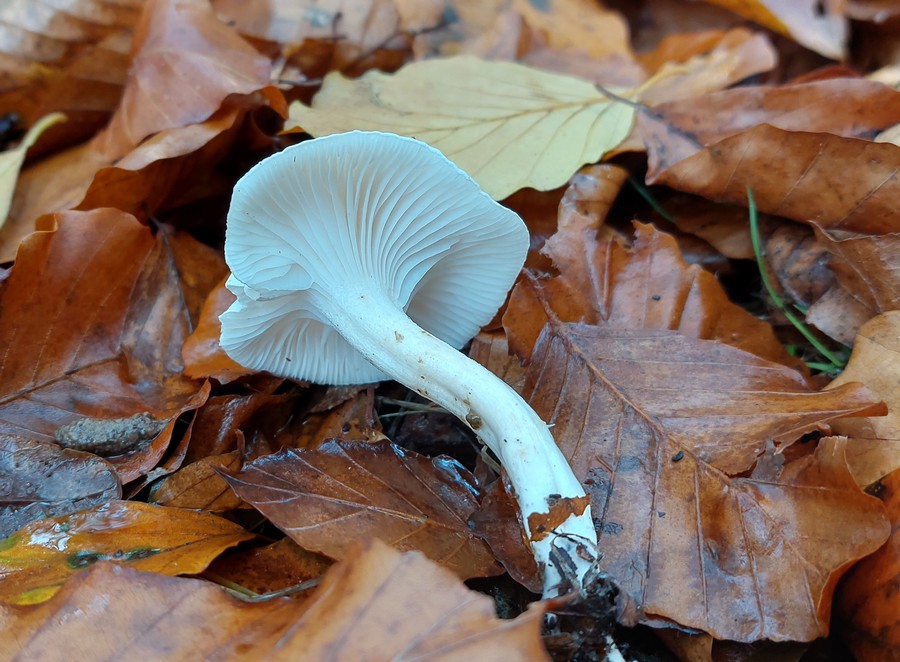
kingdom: Fungi
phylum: Basidiomycota
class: Agaricomycetes
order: Agaricales
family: Hygrophoraceae
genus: Hygrophorus
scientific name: Hygrophorus eburneus
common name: elfenbens-sneglehat
